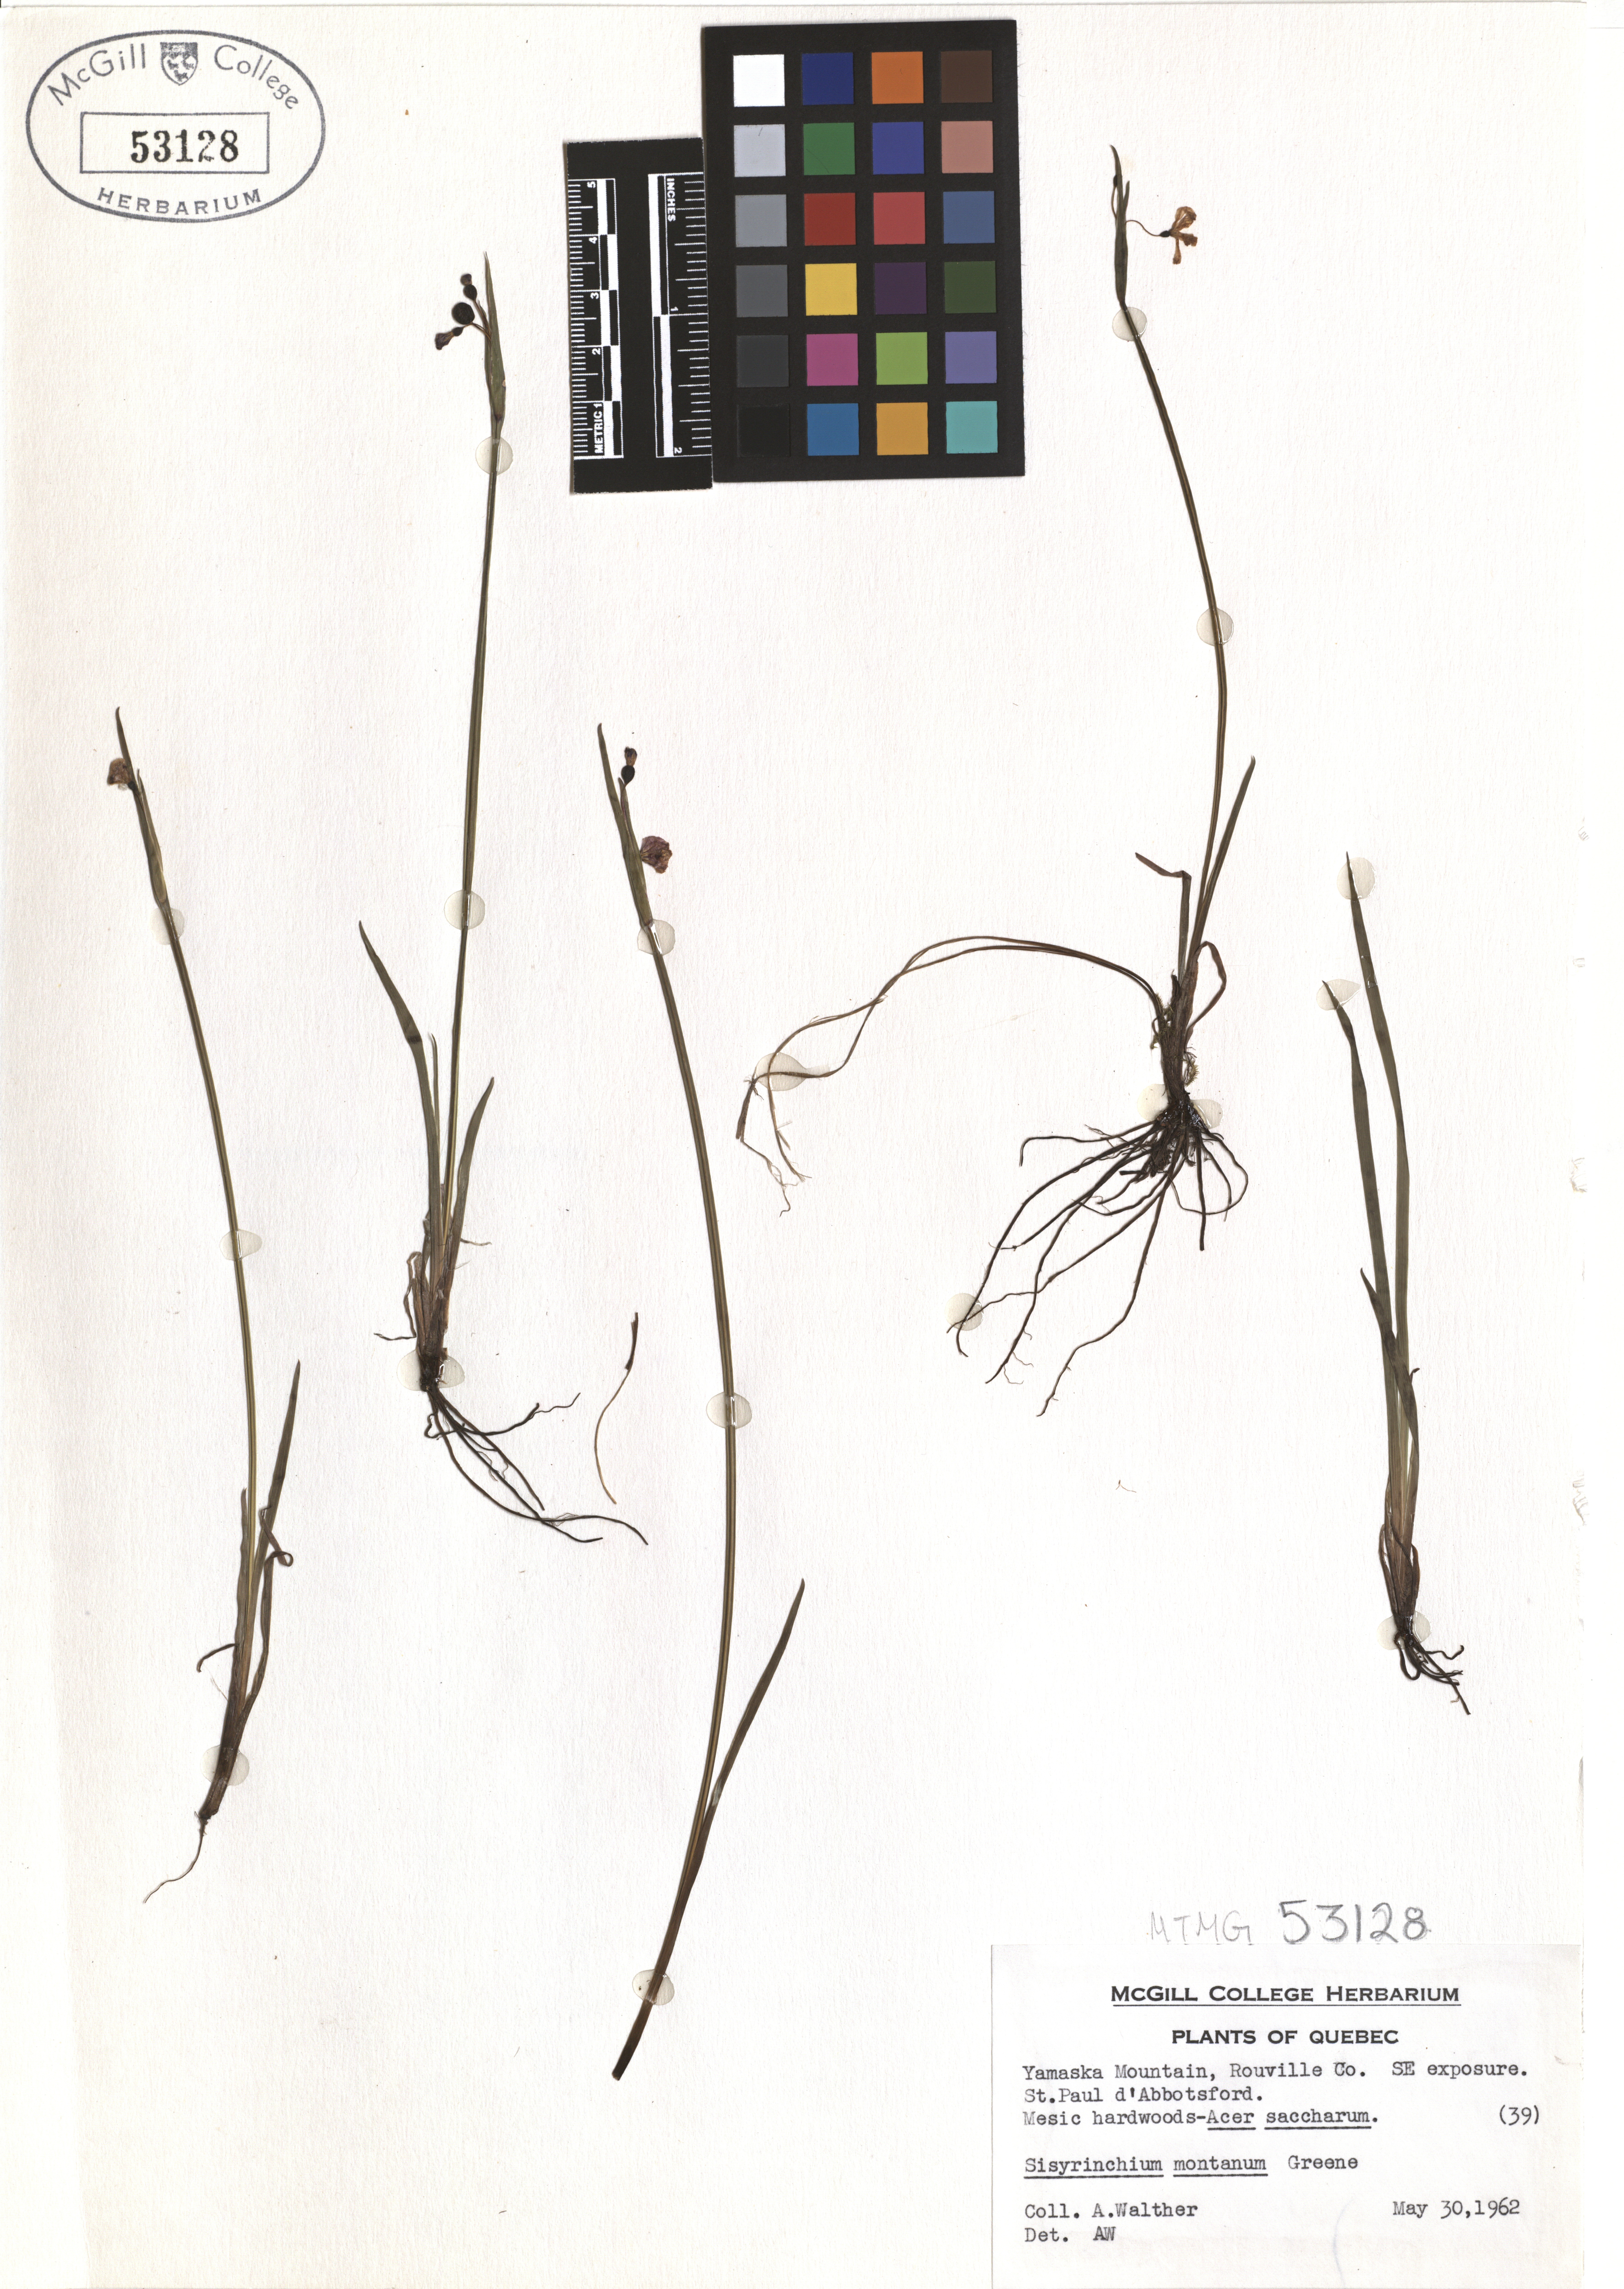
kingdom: Plantae
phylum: Tracheophyta
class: Liliopsida
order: Asparagales
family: Iridaceae
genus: Sisyrinchium
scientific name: Sisyrinchium montanum
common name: American blue-eyed-grass
